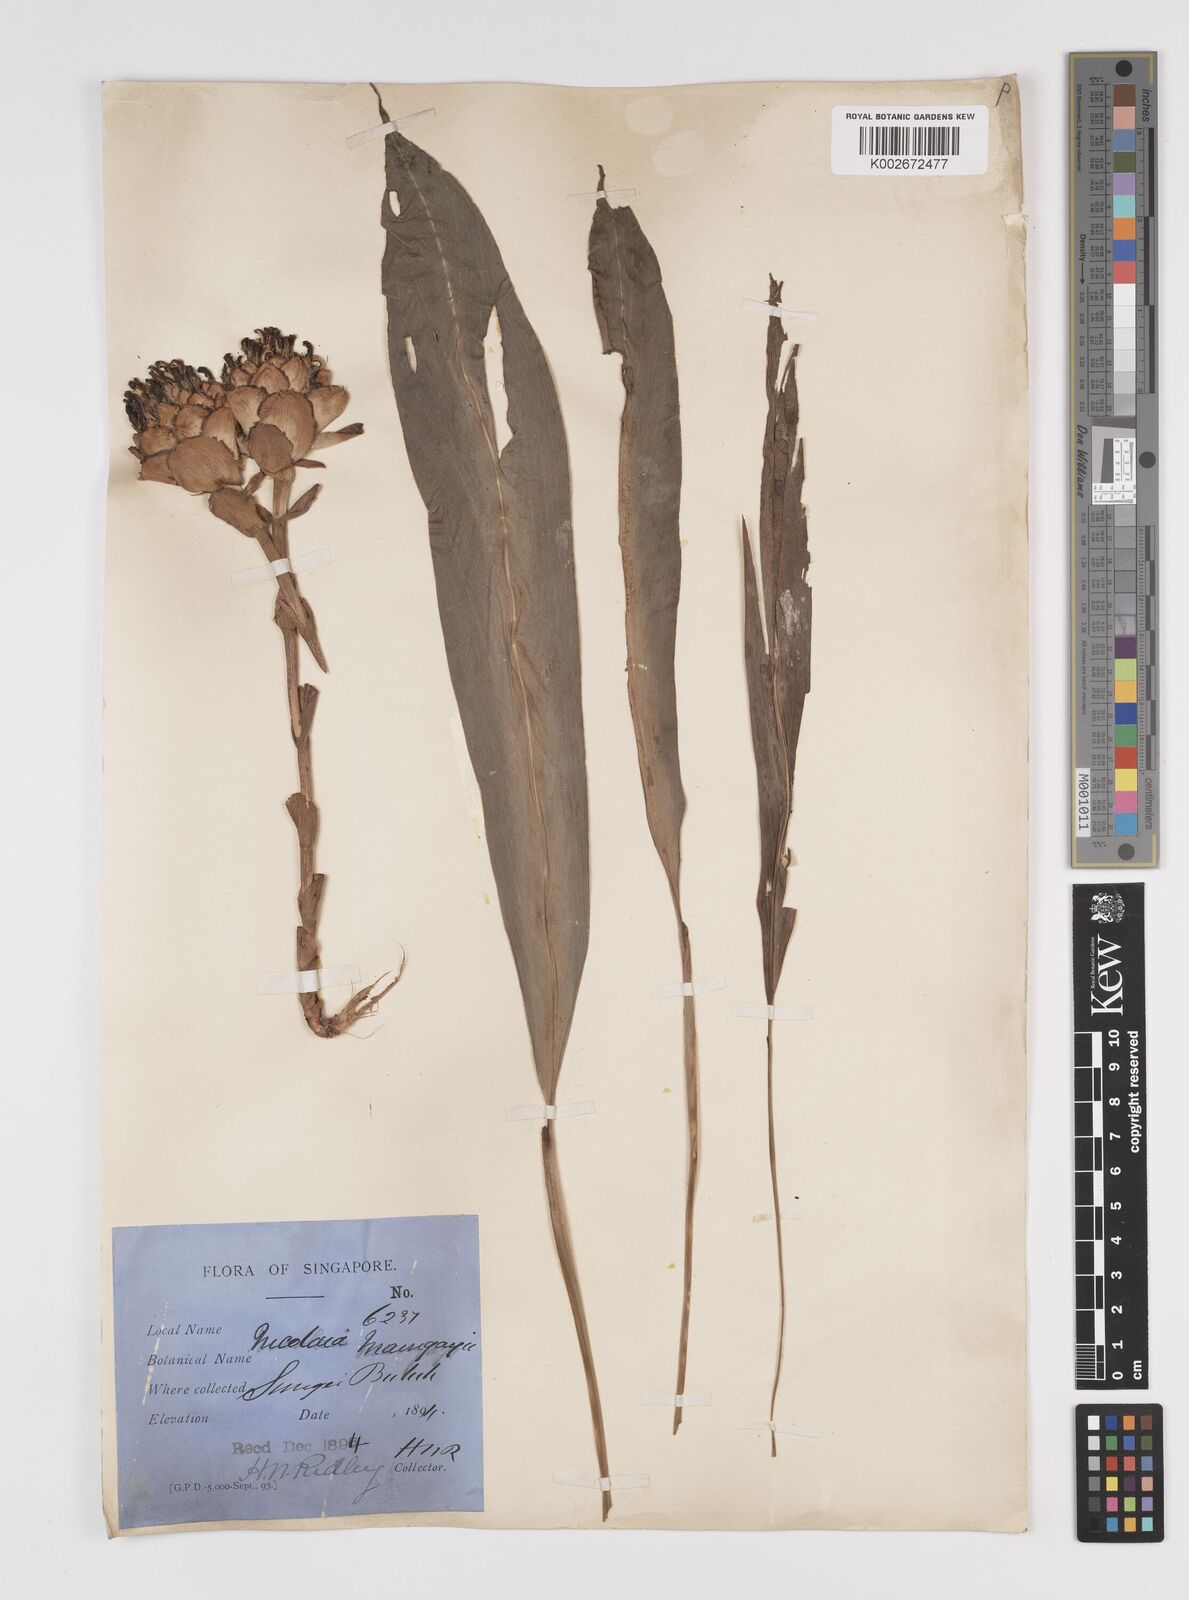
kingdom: Plantae
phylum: Tracheophyta
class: Liliopsida
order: Zingiberales
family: Zingiberaceae
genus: Etlingera
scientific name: Etlingera maingayi
